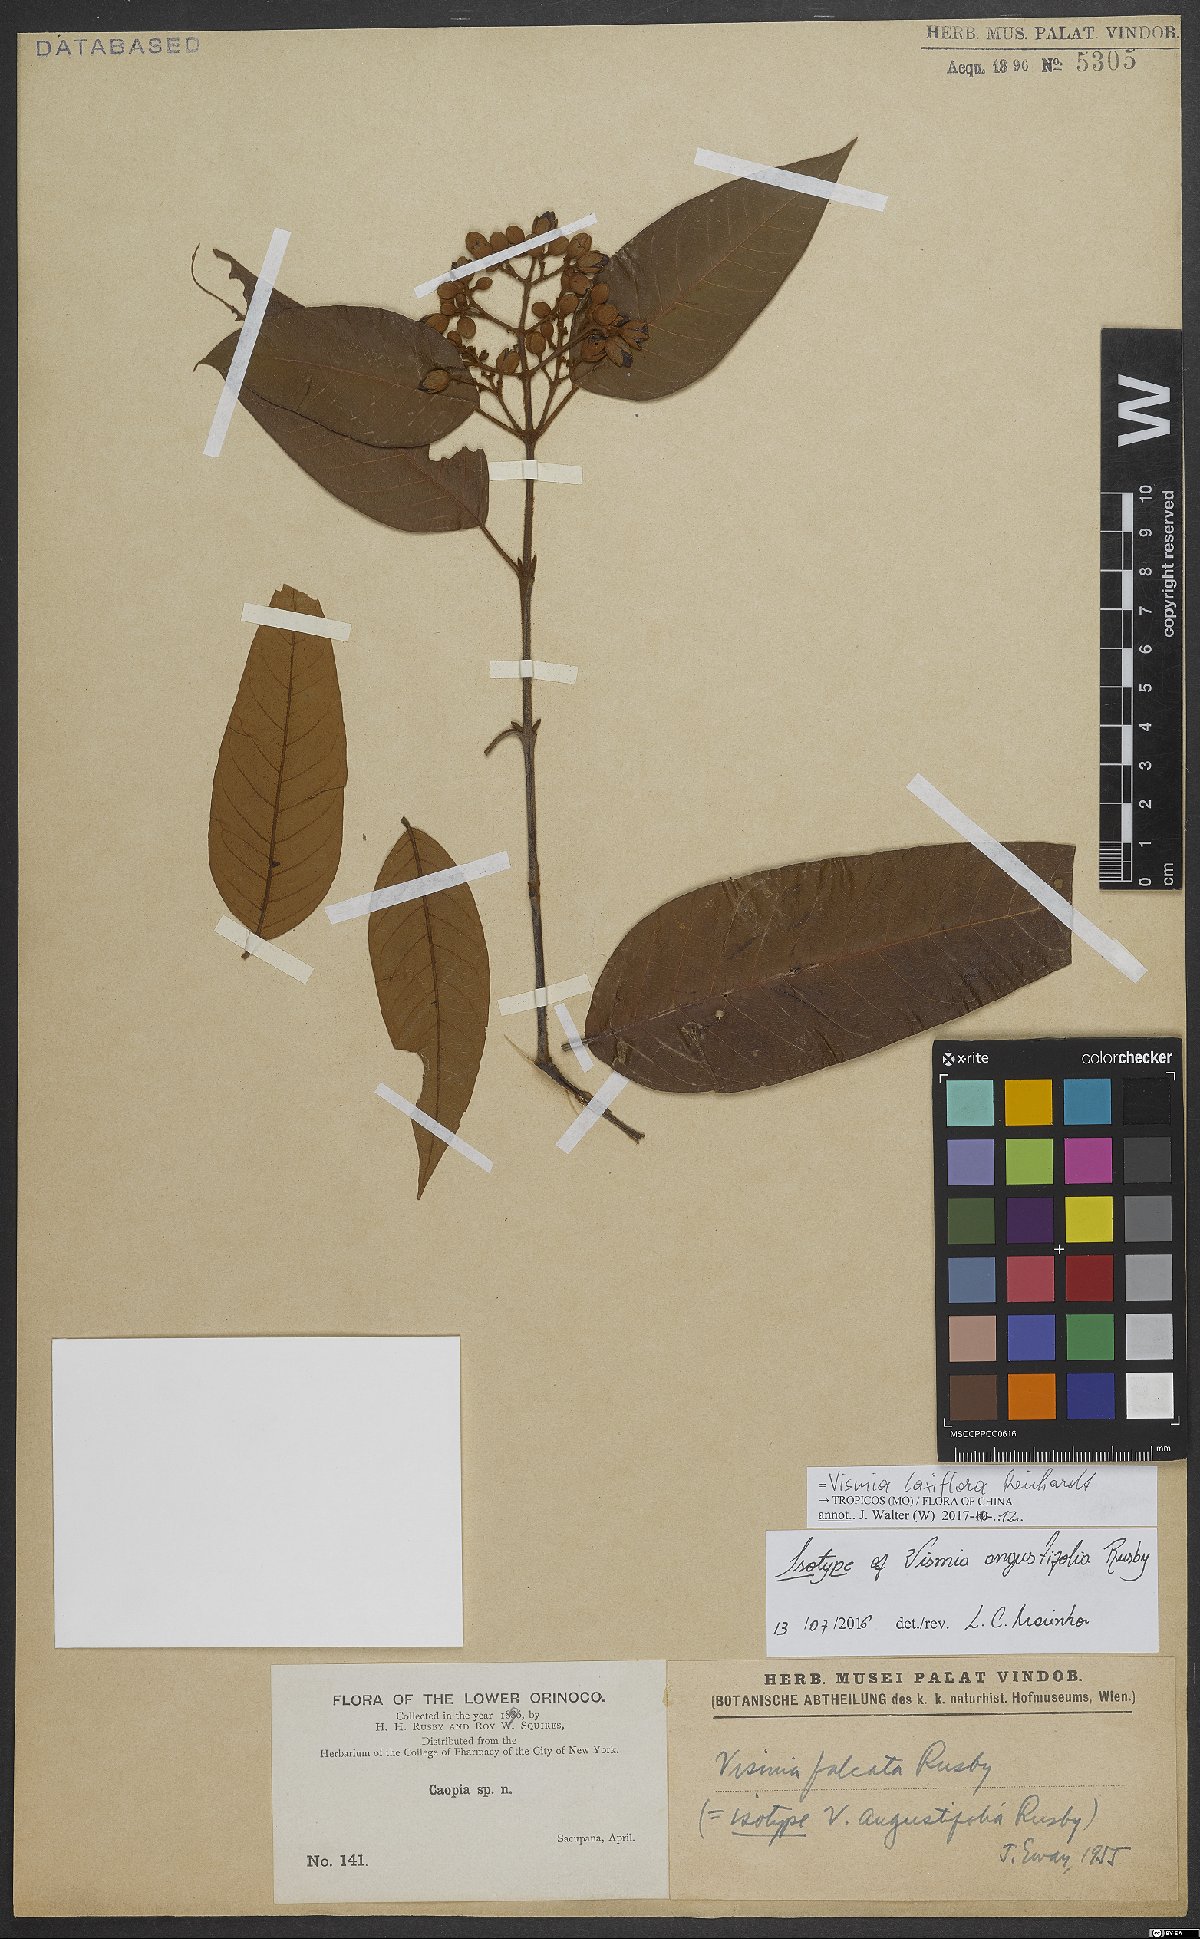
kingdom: Plantae
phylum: Tracheophyta
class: Magnoliopsida
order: Malpighiales
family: Hypericaceae
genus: Vismia
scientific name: Vismia laxiflora
